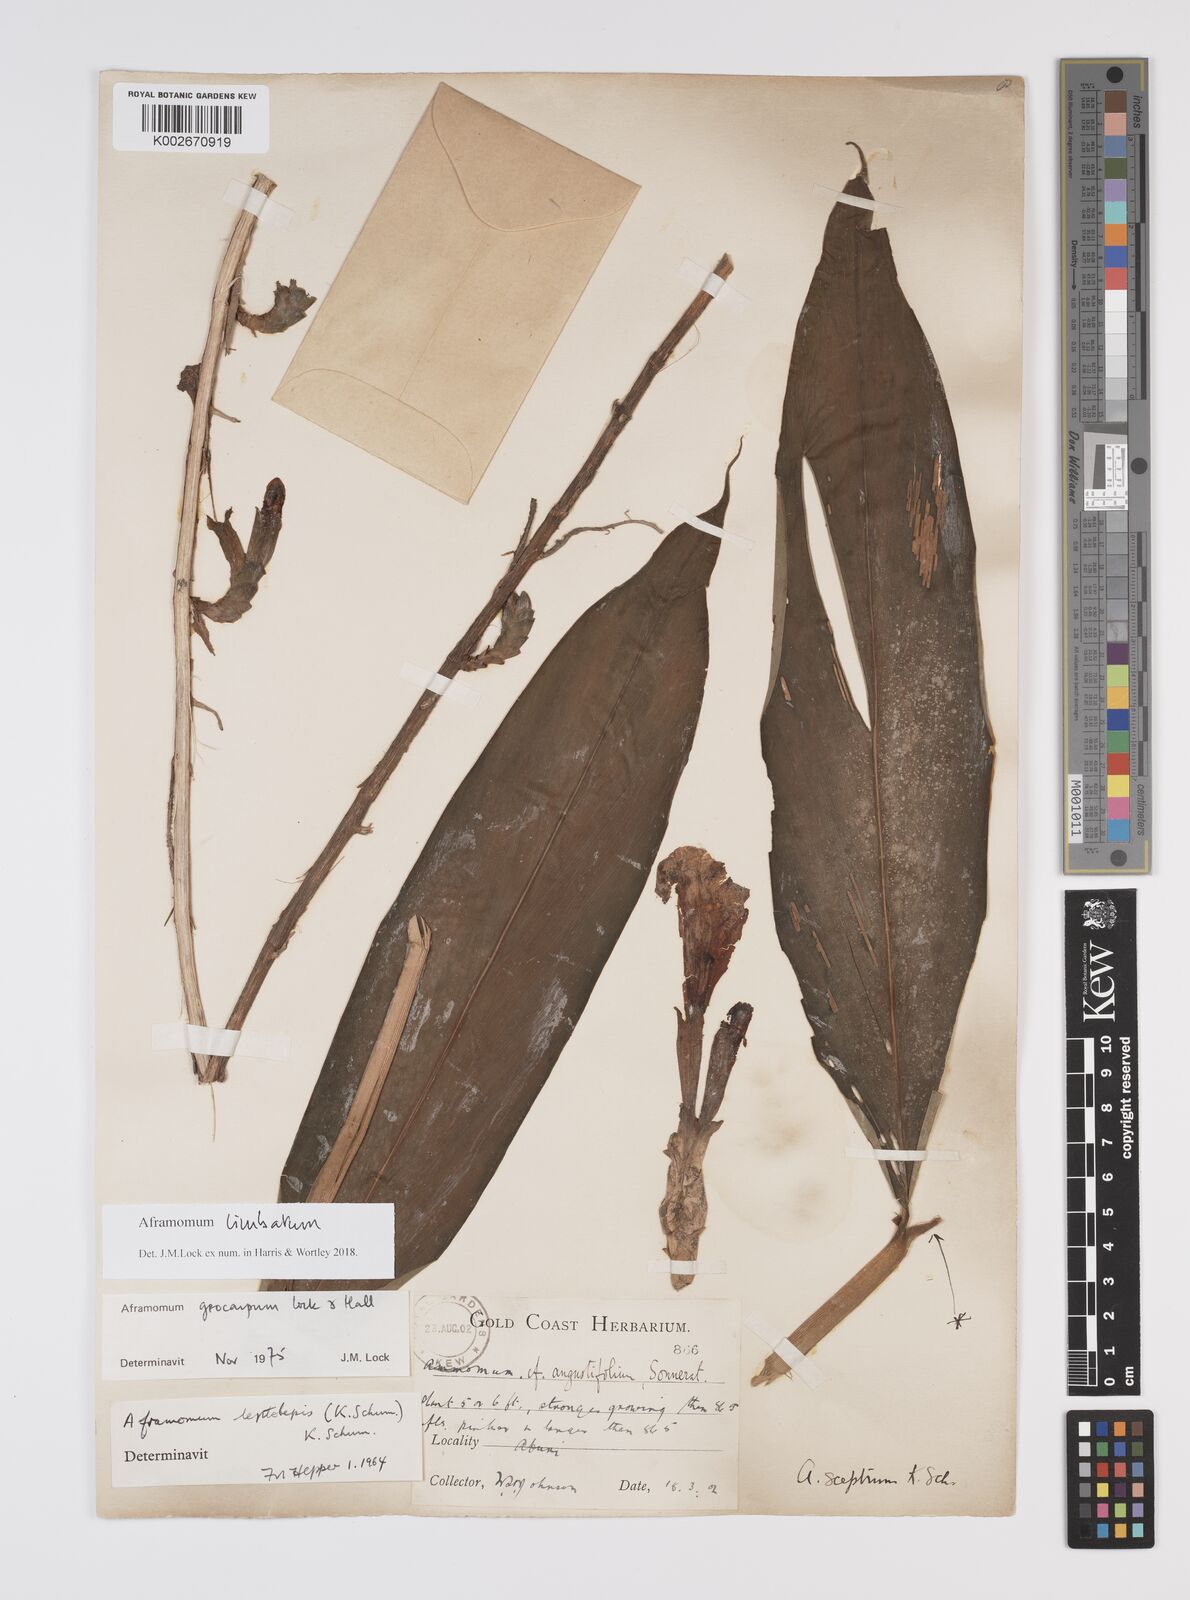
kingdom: Plantae
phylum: Tracheophyta
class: Liliopsida
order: Zingiberales
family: Zingiberaceae
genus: Aframomum
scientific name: Aframomum limbatum
